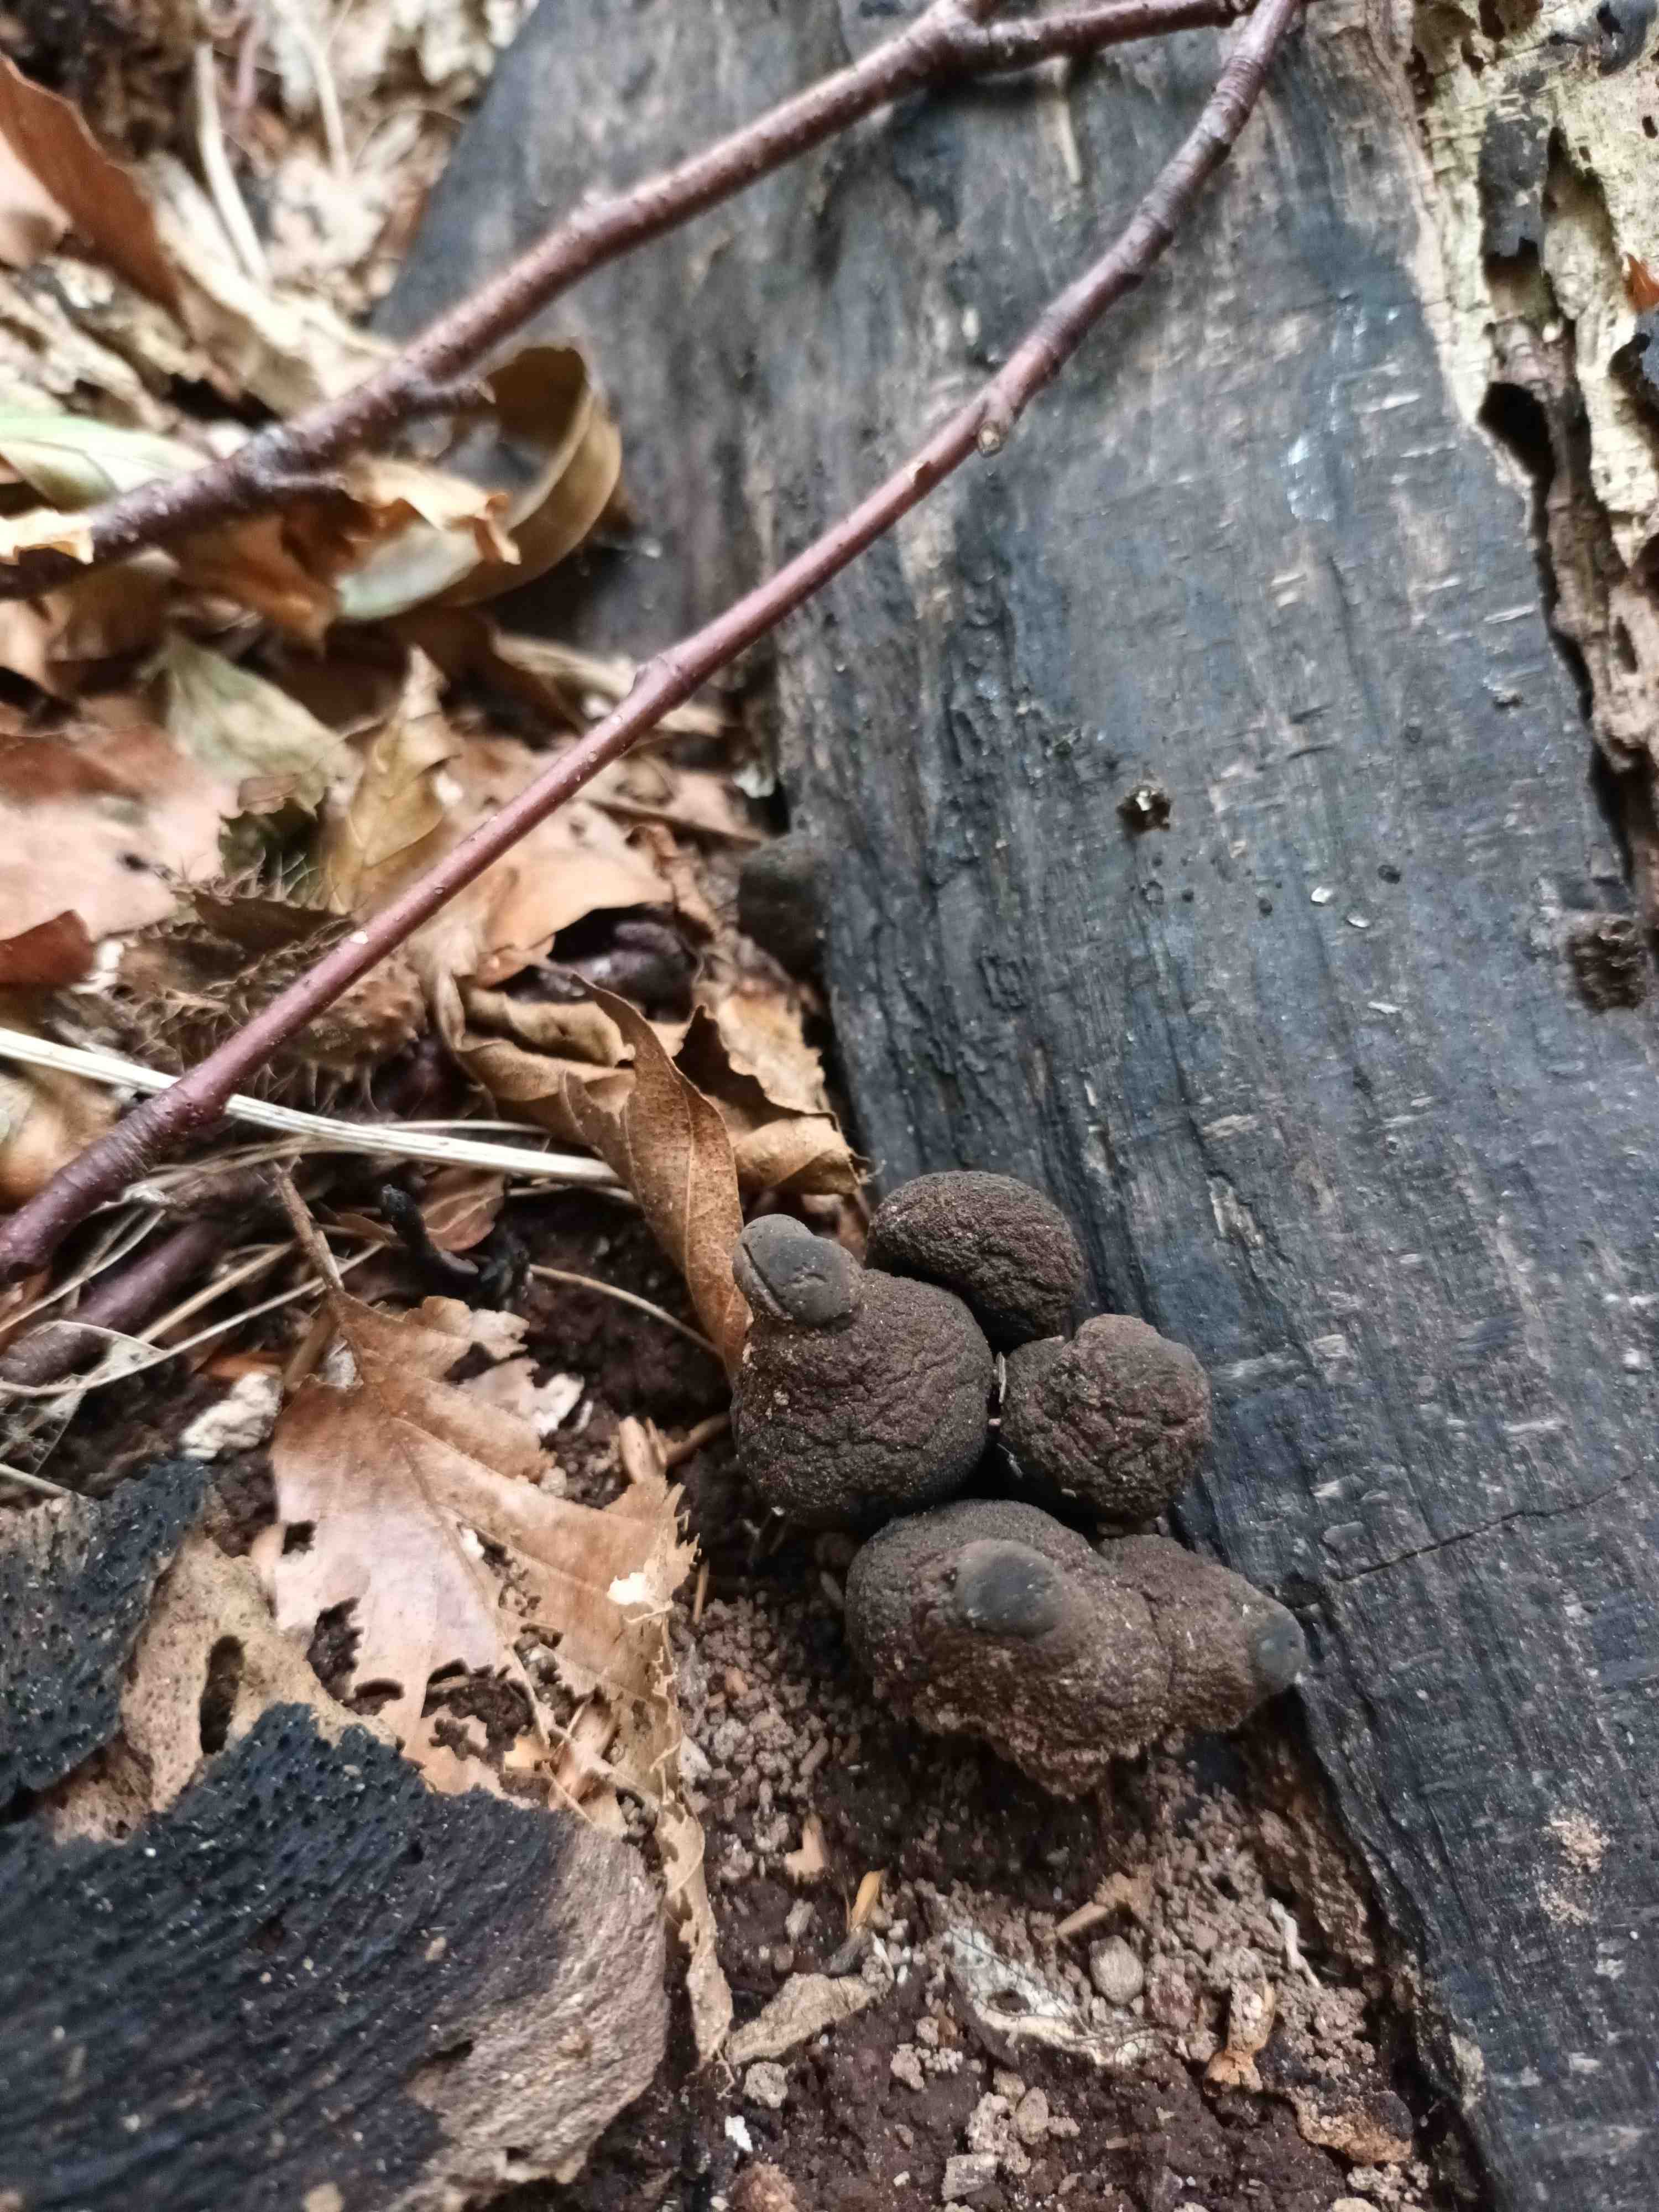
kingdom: Fungi
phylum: Ascomycota
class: Sordariomycetes
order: Xylariales
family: Xylariaceae
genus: Xylaria
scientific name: Xylaria polymorpha
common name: kølle-stødsvamp
